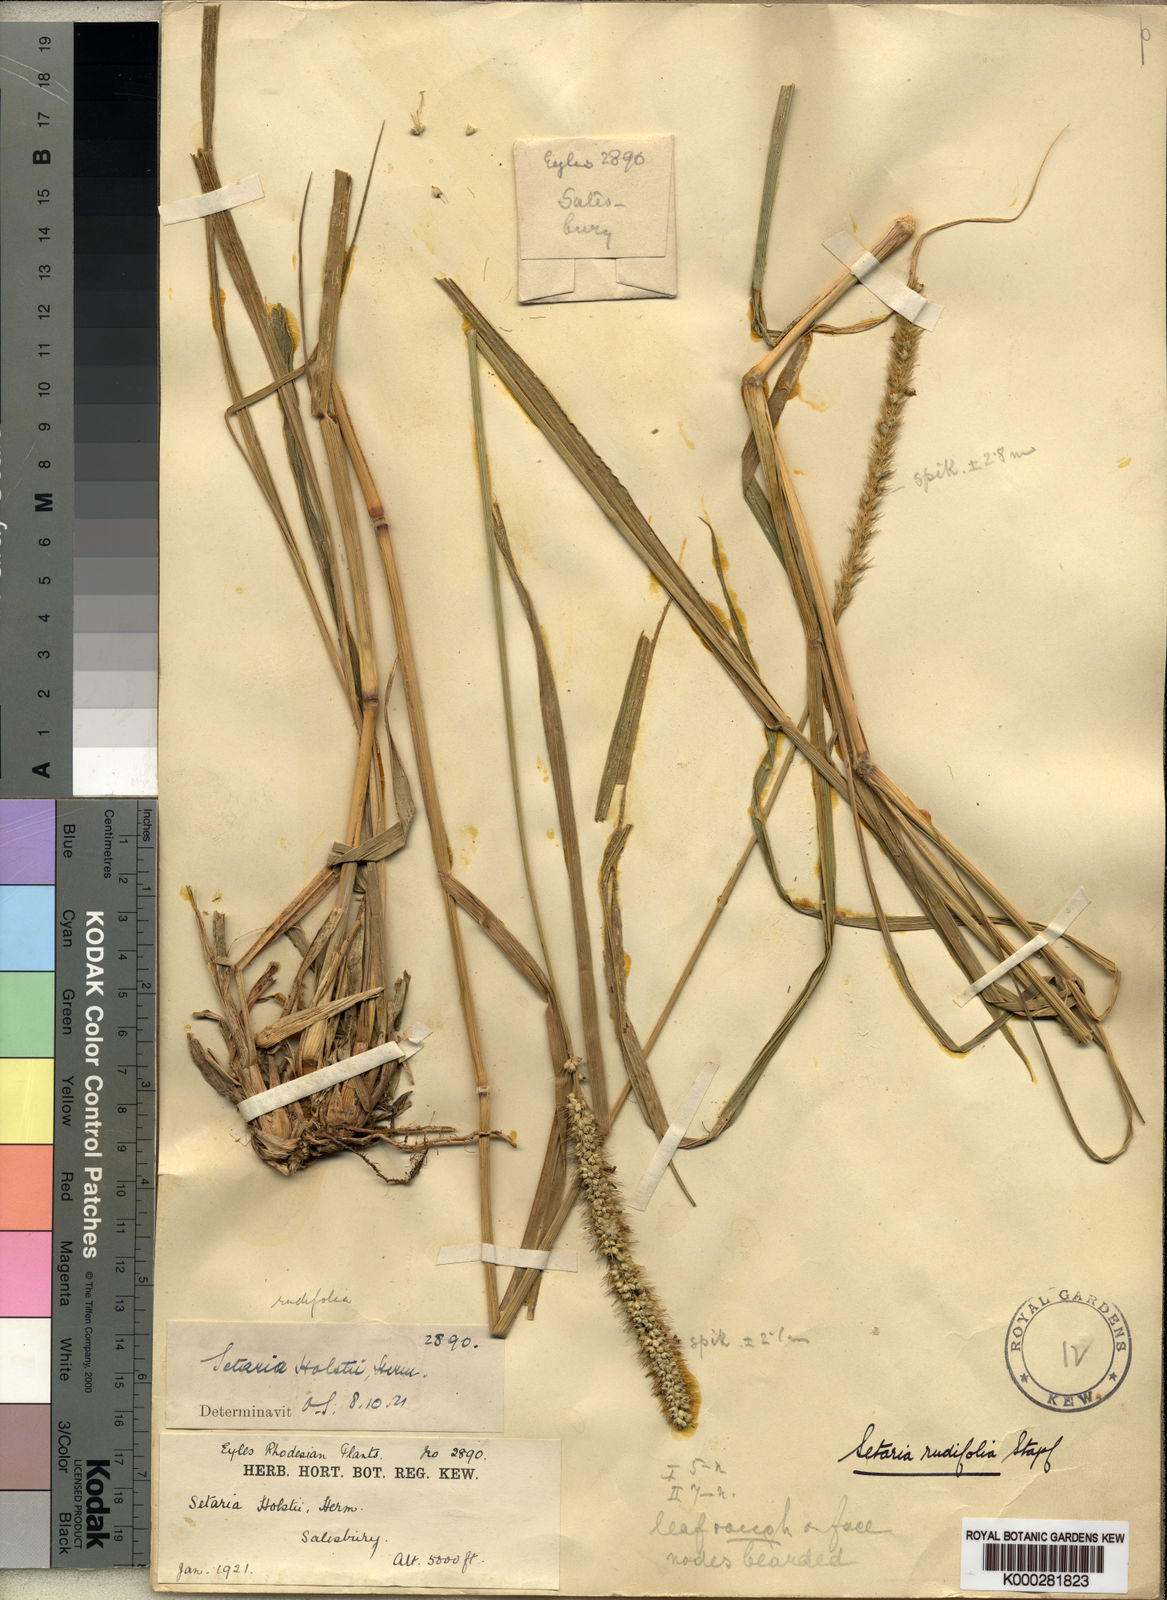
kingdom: Plantae
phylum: Tracheophyta
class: Liliopsida
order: Poales
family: Poaceae
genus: Setaria
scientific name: Setaria incrassata
